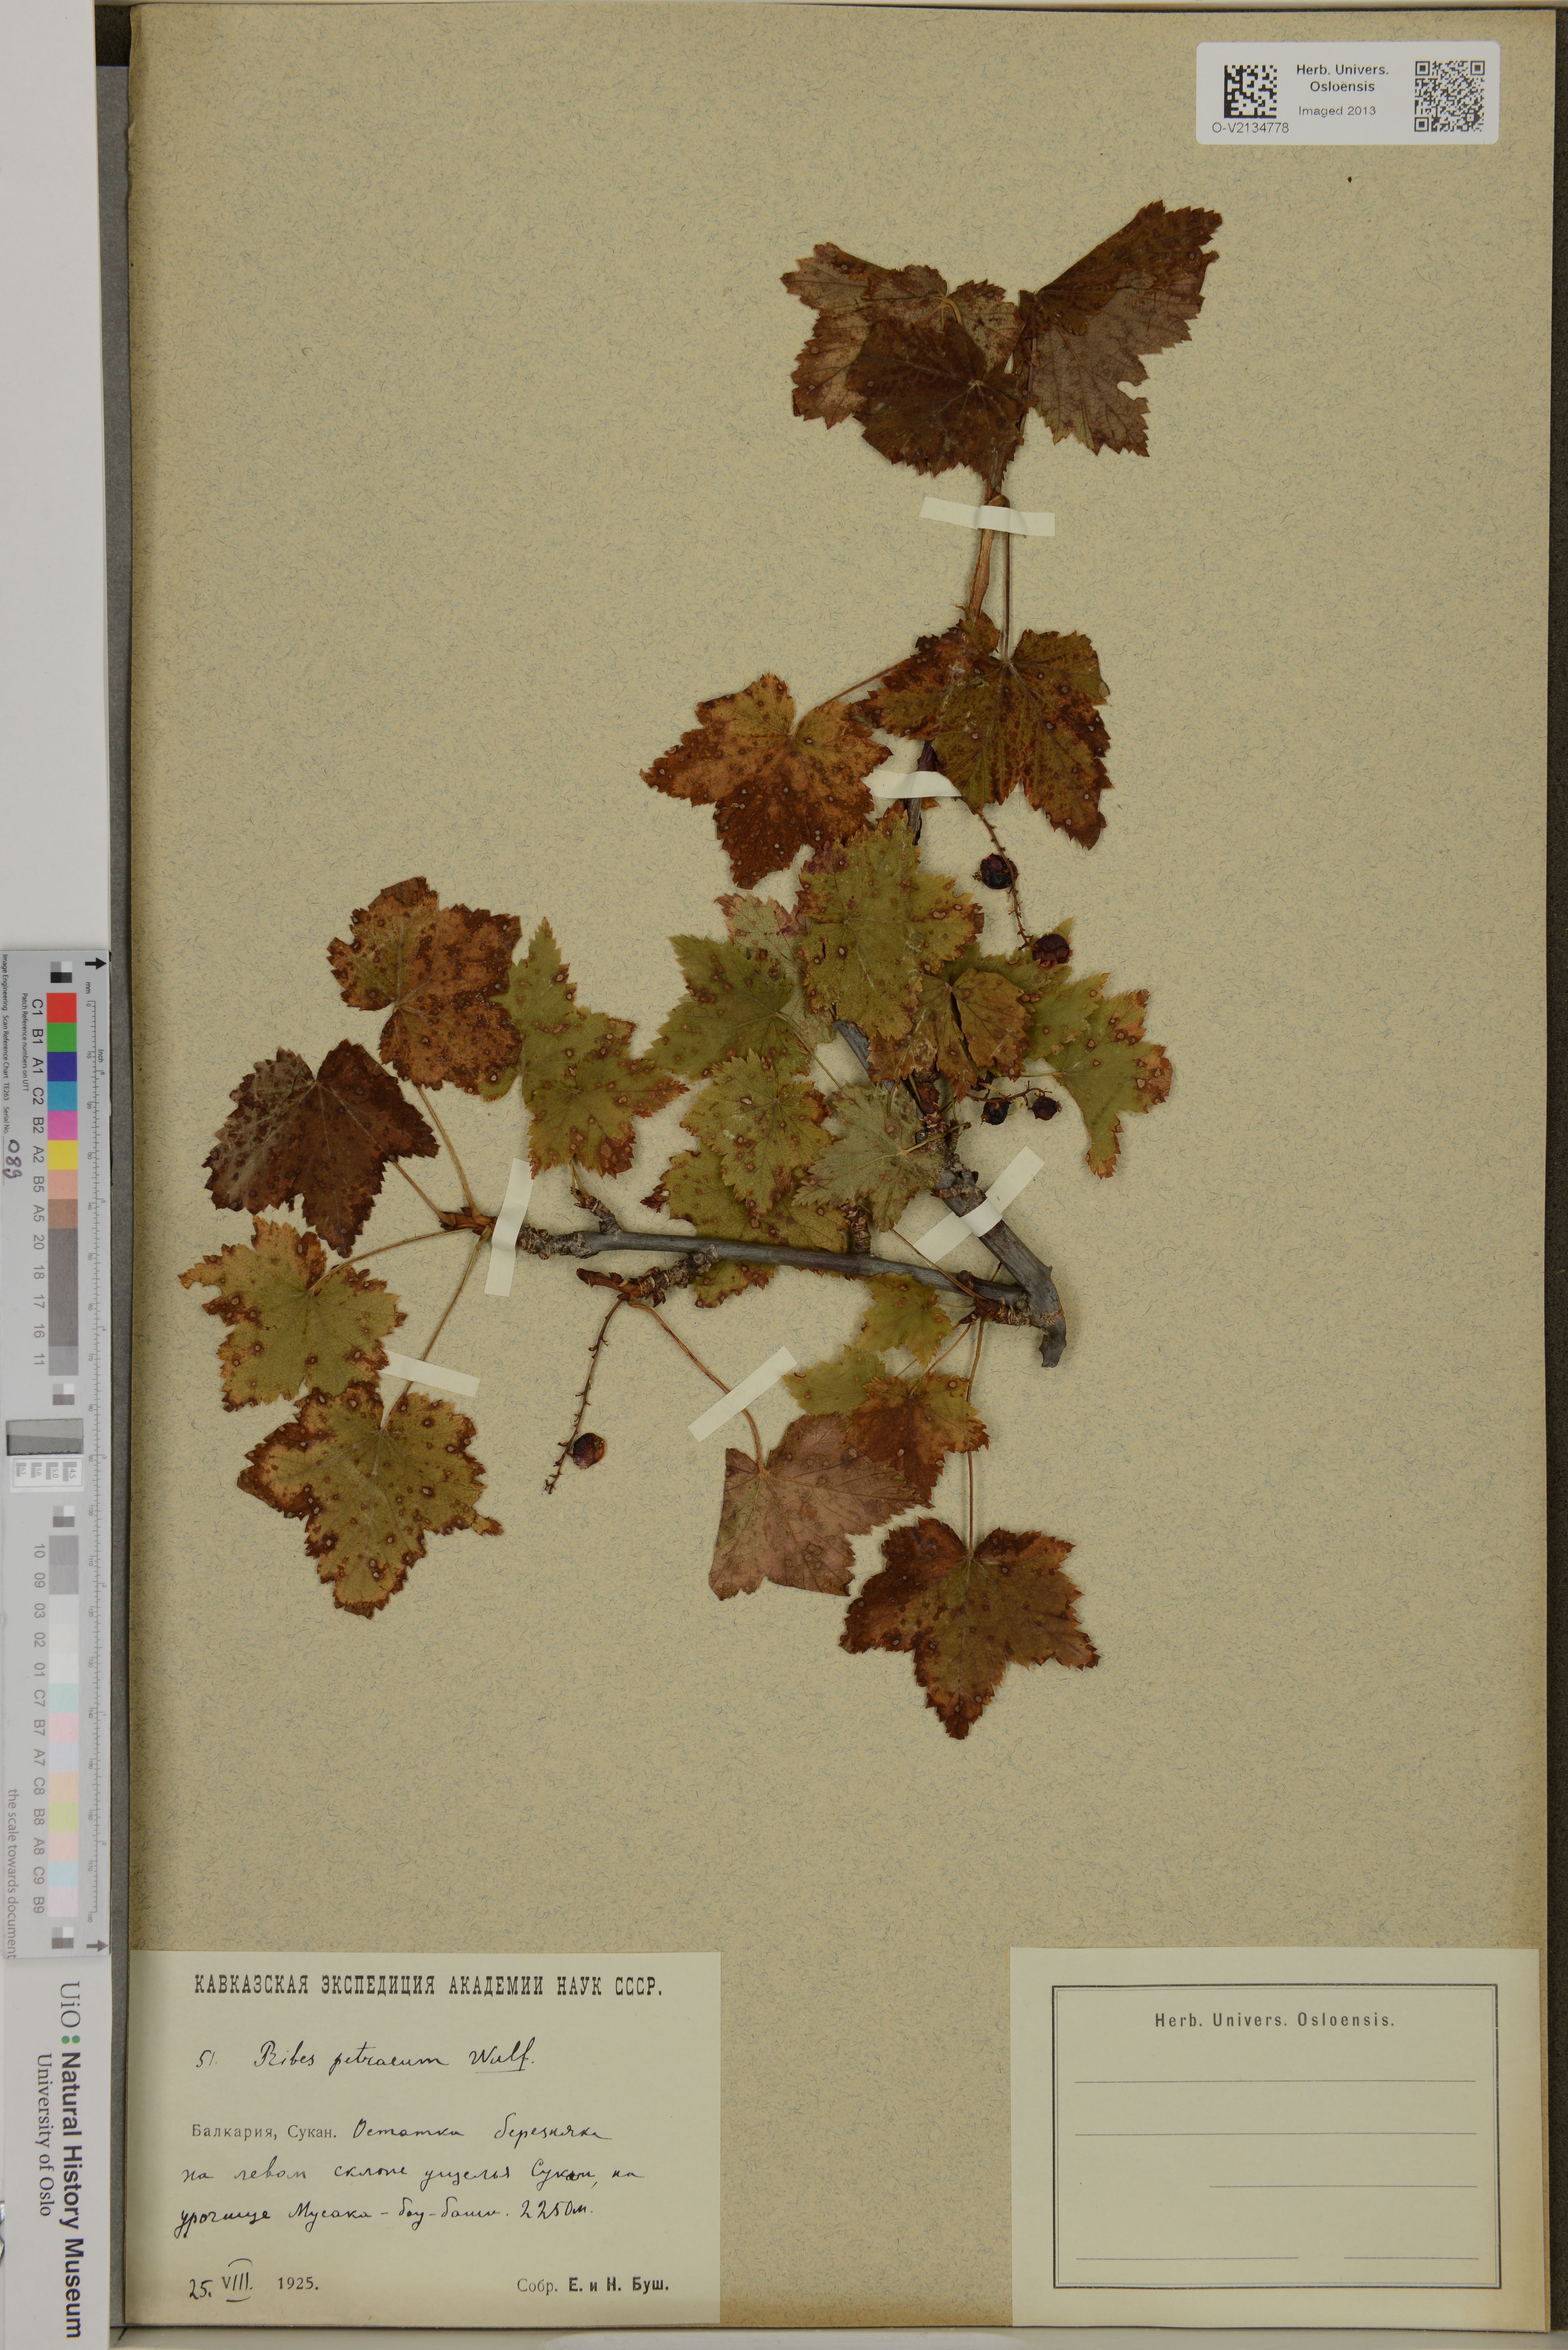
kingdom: Plantae
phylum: Tracheophyta
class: Magnoliopsida
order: Saxifragales
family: Grossulariaceae
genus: Ribes
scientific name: Ribes petraeum
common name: Rock currant
